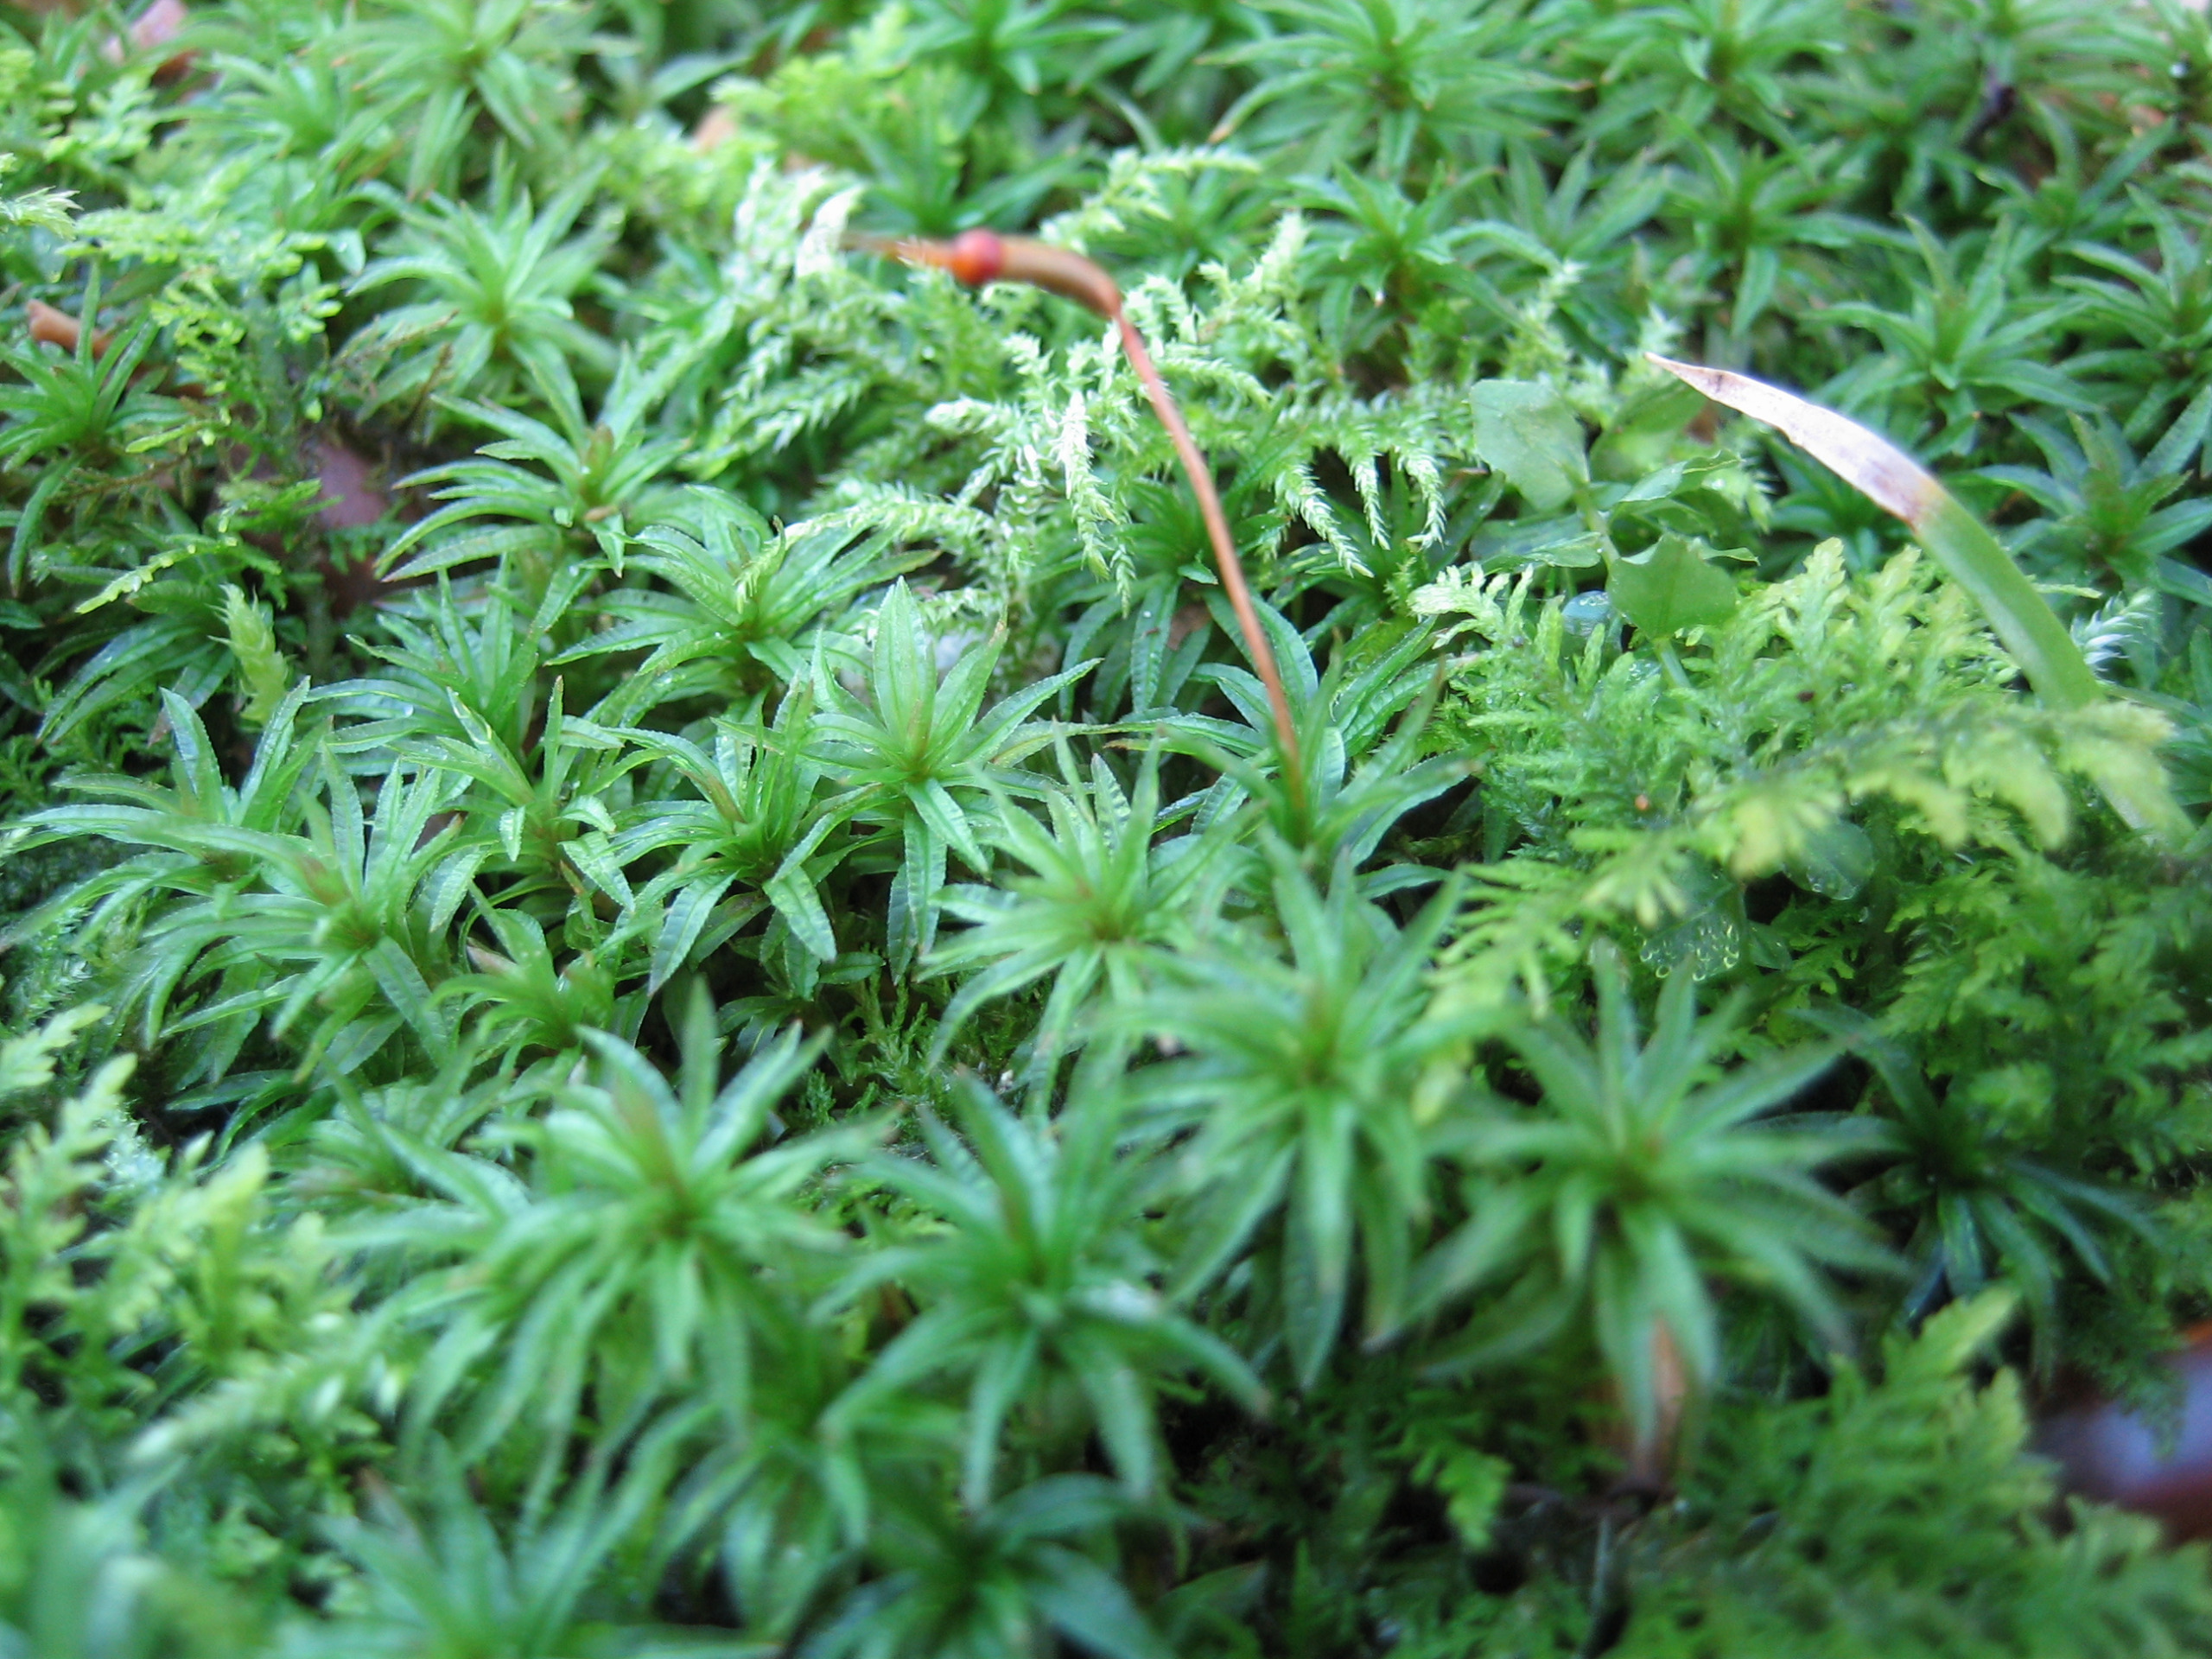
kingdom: Plantae
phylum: Bryophyta
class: Polytrichopsida
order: Polytrichales
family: Polytrichaceae
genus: Atrichum
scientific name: Atrichum undulatum
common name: Bølget katrinemos
